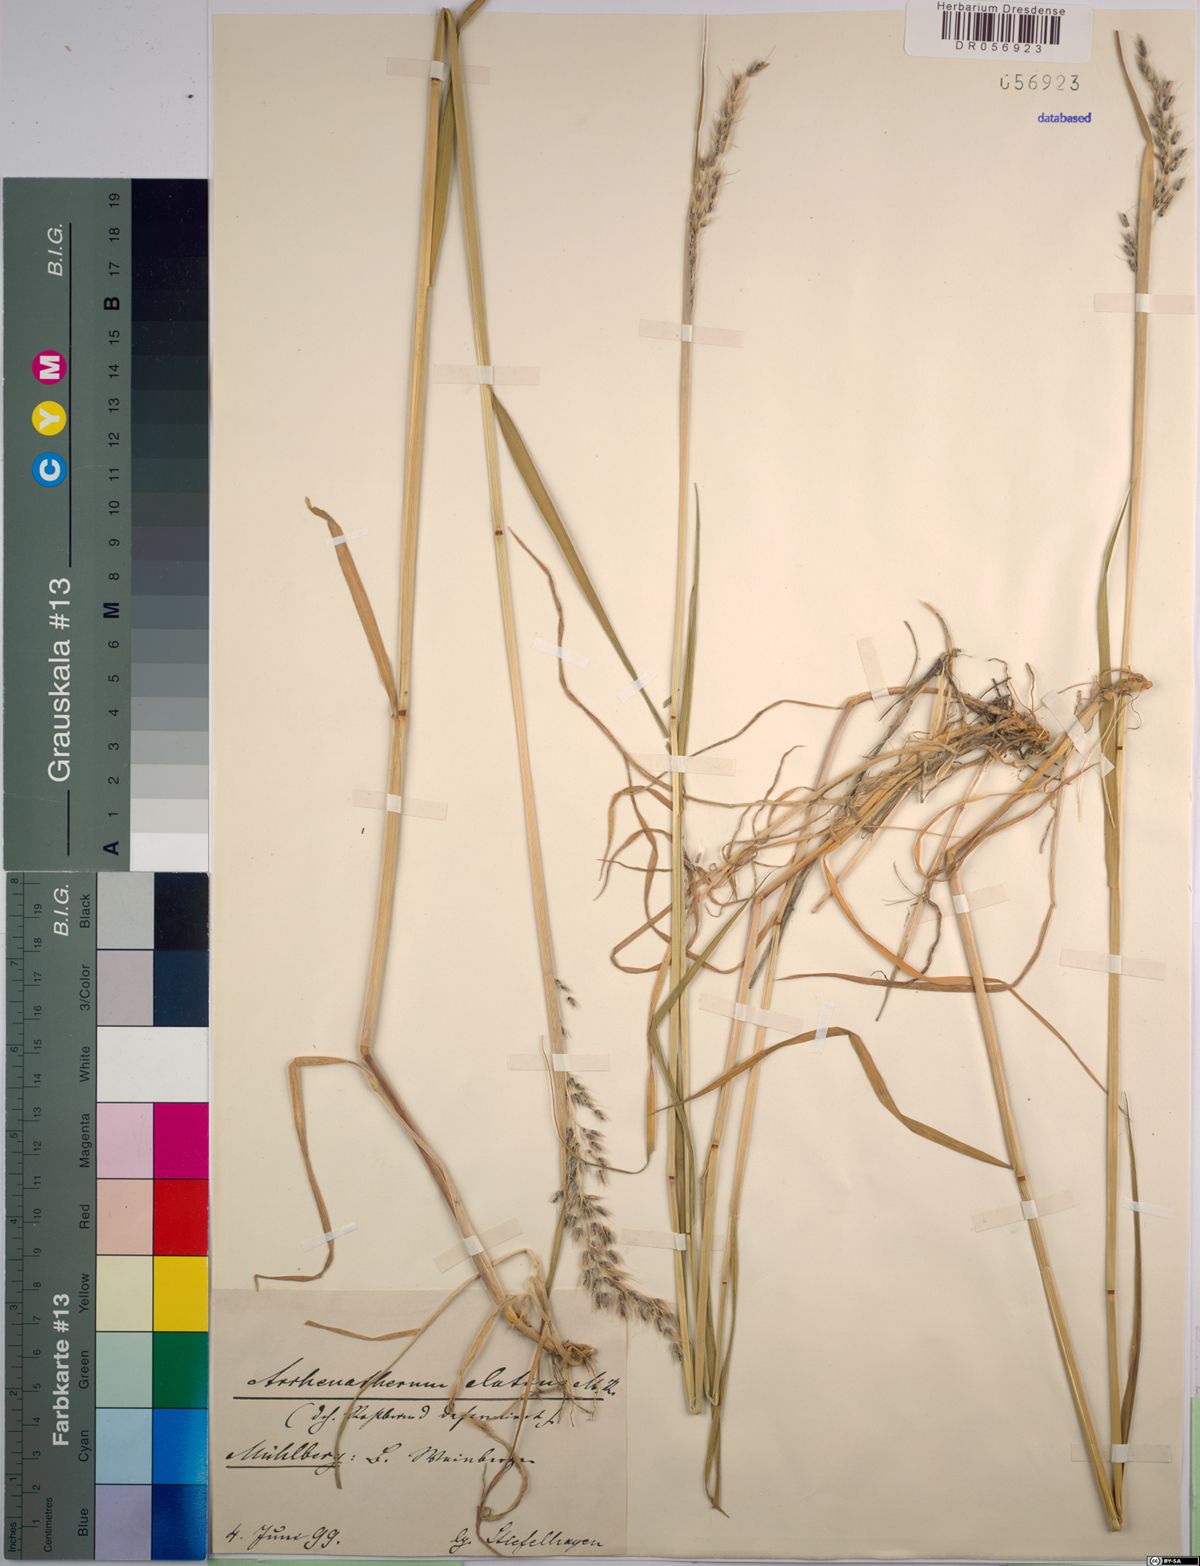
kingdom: Plantae
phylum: Tracheophyta
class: Liliopsida
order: Poales
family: Poaceae
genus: Arrhenatherum
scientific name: Arrhenatherum elatius
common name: Tall oatgrass
